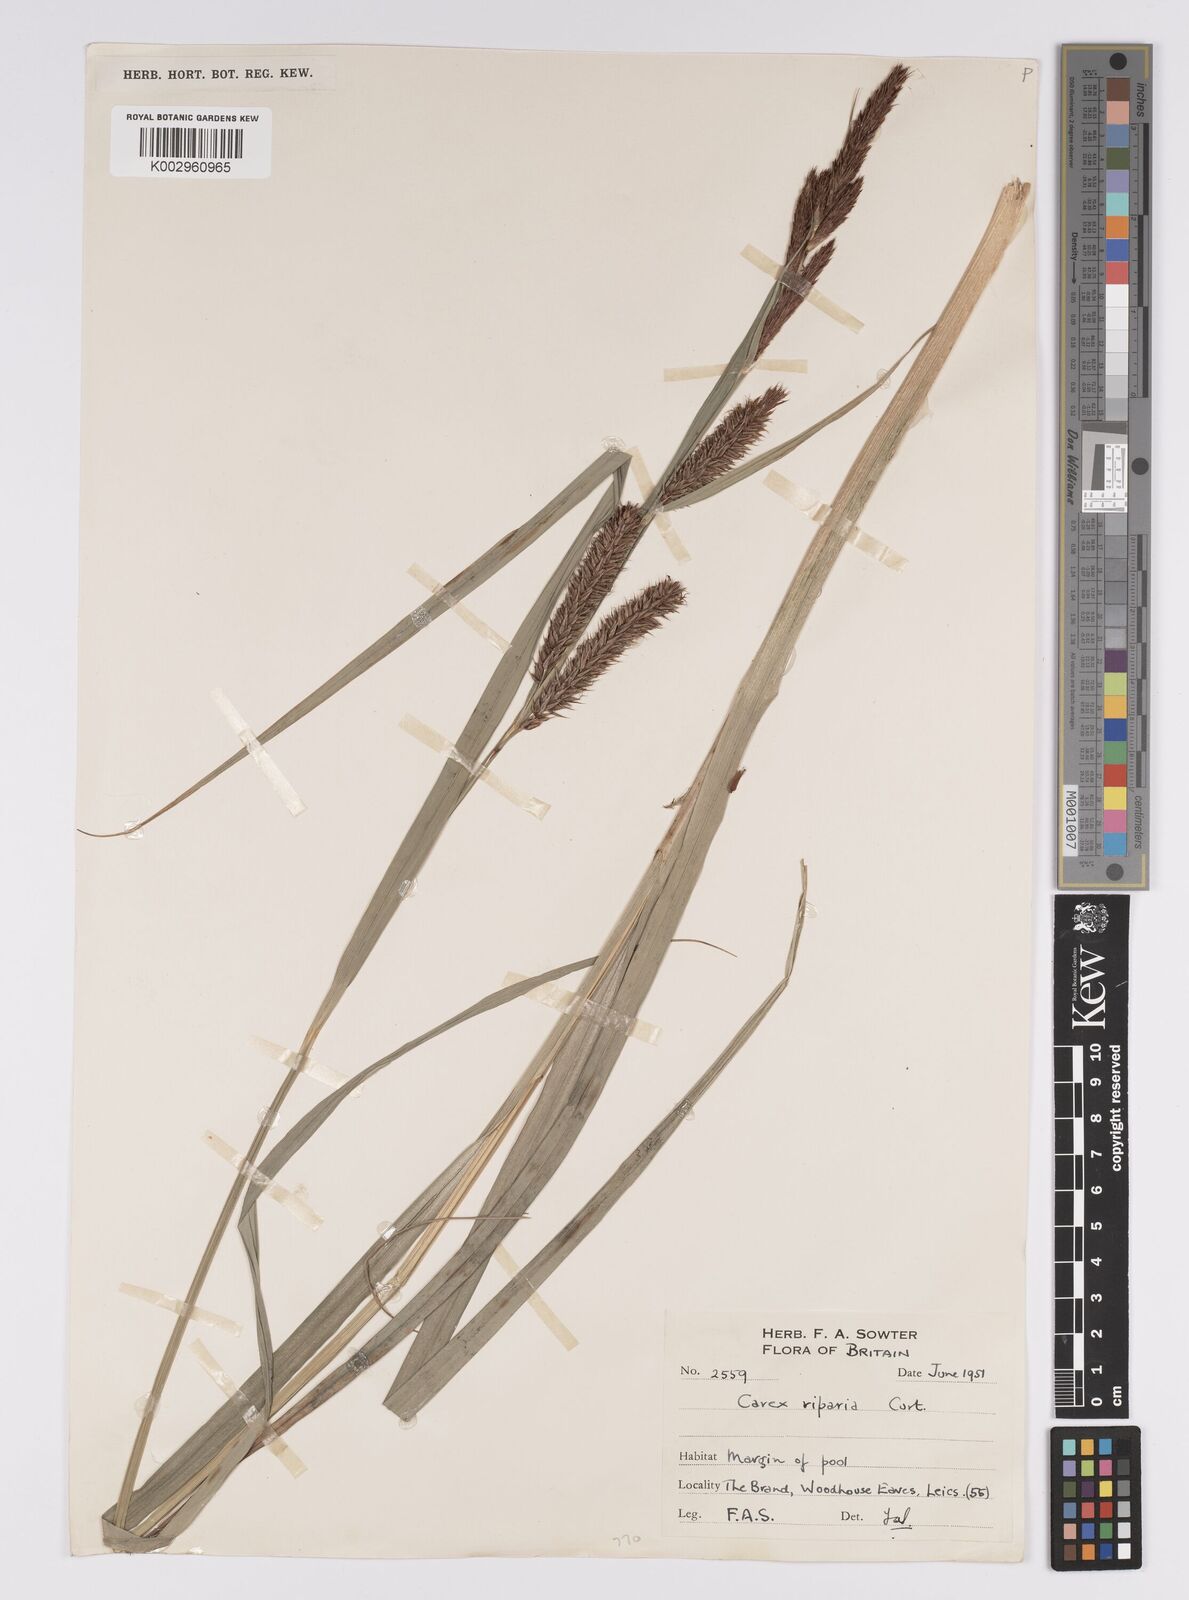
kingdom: Plantae
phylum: Tracheophyta
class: Liliopsida
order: Poales
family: Cyperaceae
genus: Carex
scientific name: Carex riparia
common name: Greater pond-sedge
